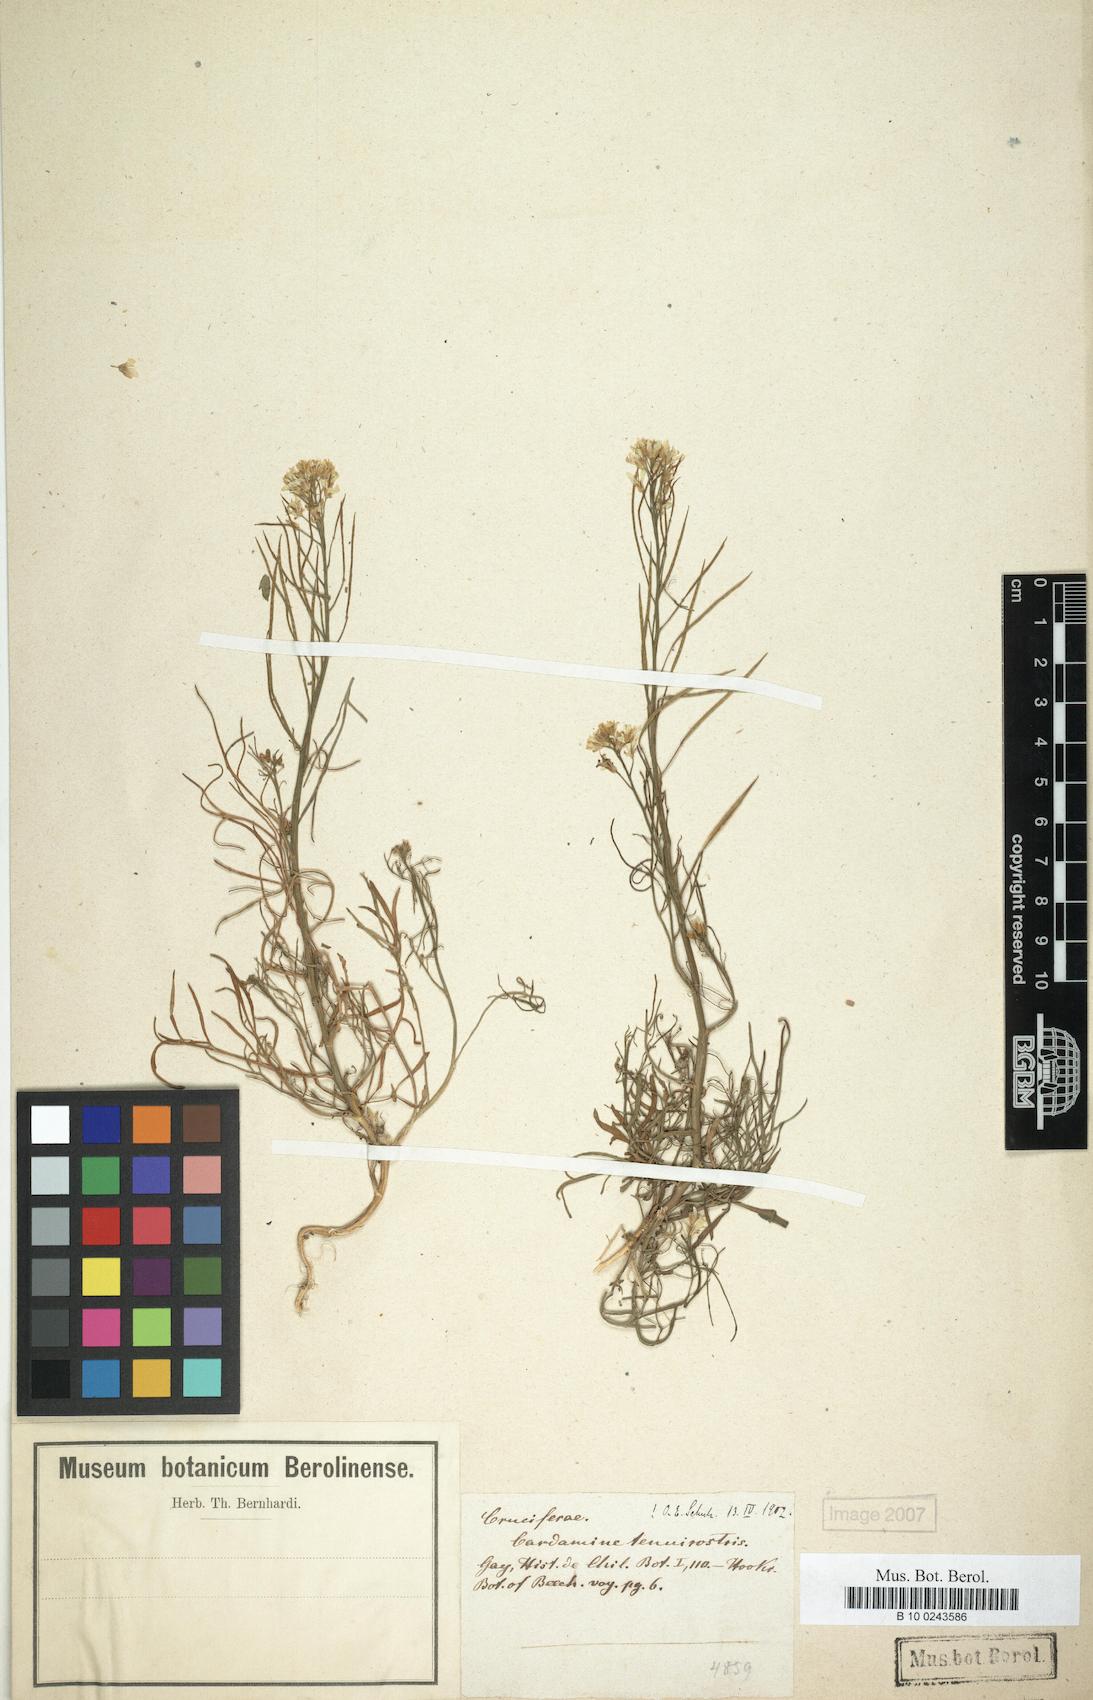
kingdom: Plantae
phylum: Tracheophyta
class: Magnoliopsida
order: Brassicales
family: Brassicaceae
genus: Cardamine
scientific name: Cardamine tenuirostris
